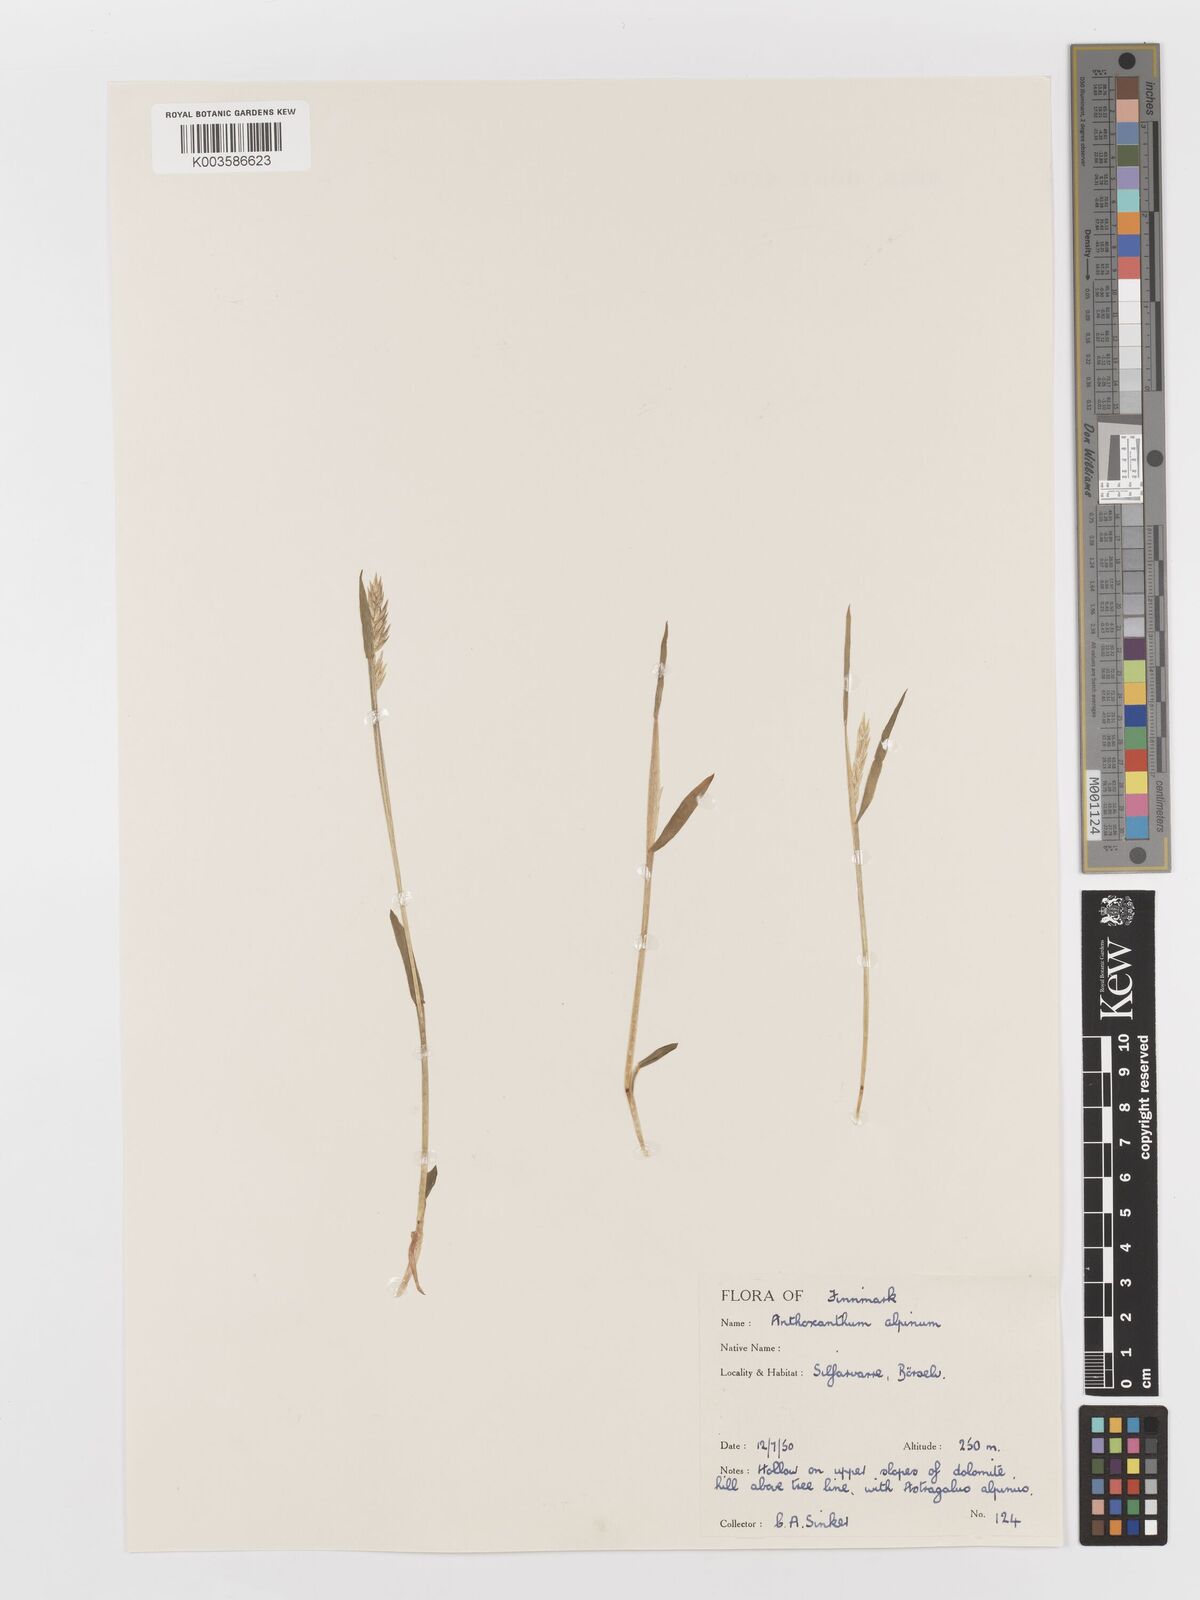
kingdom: Plantae
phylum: Tracheophyta
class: Liliopsida
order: Poales
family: Poaceae
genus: Anthoxanthum
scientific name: Anthoxanthum odoratum
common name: Sweet vernalgrass
